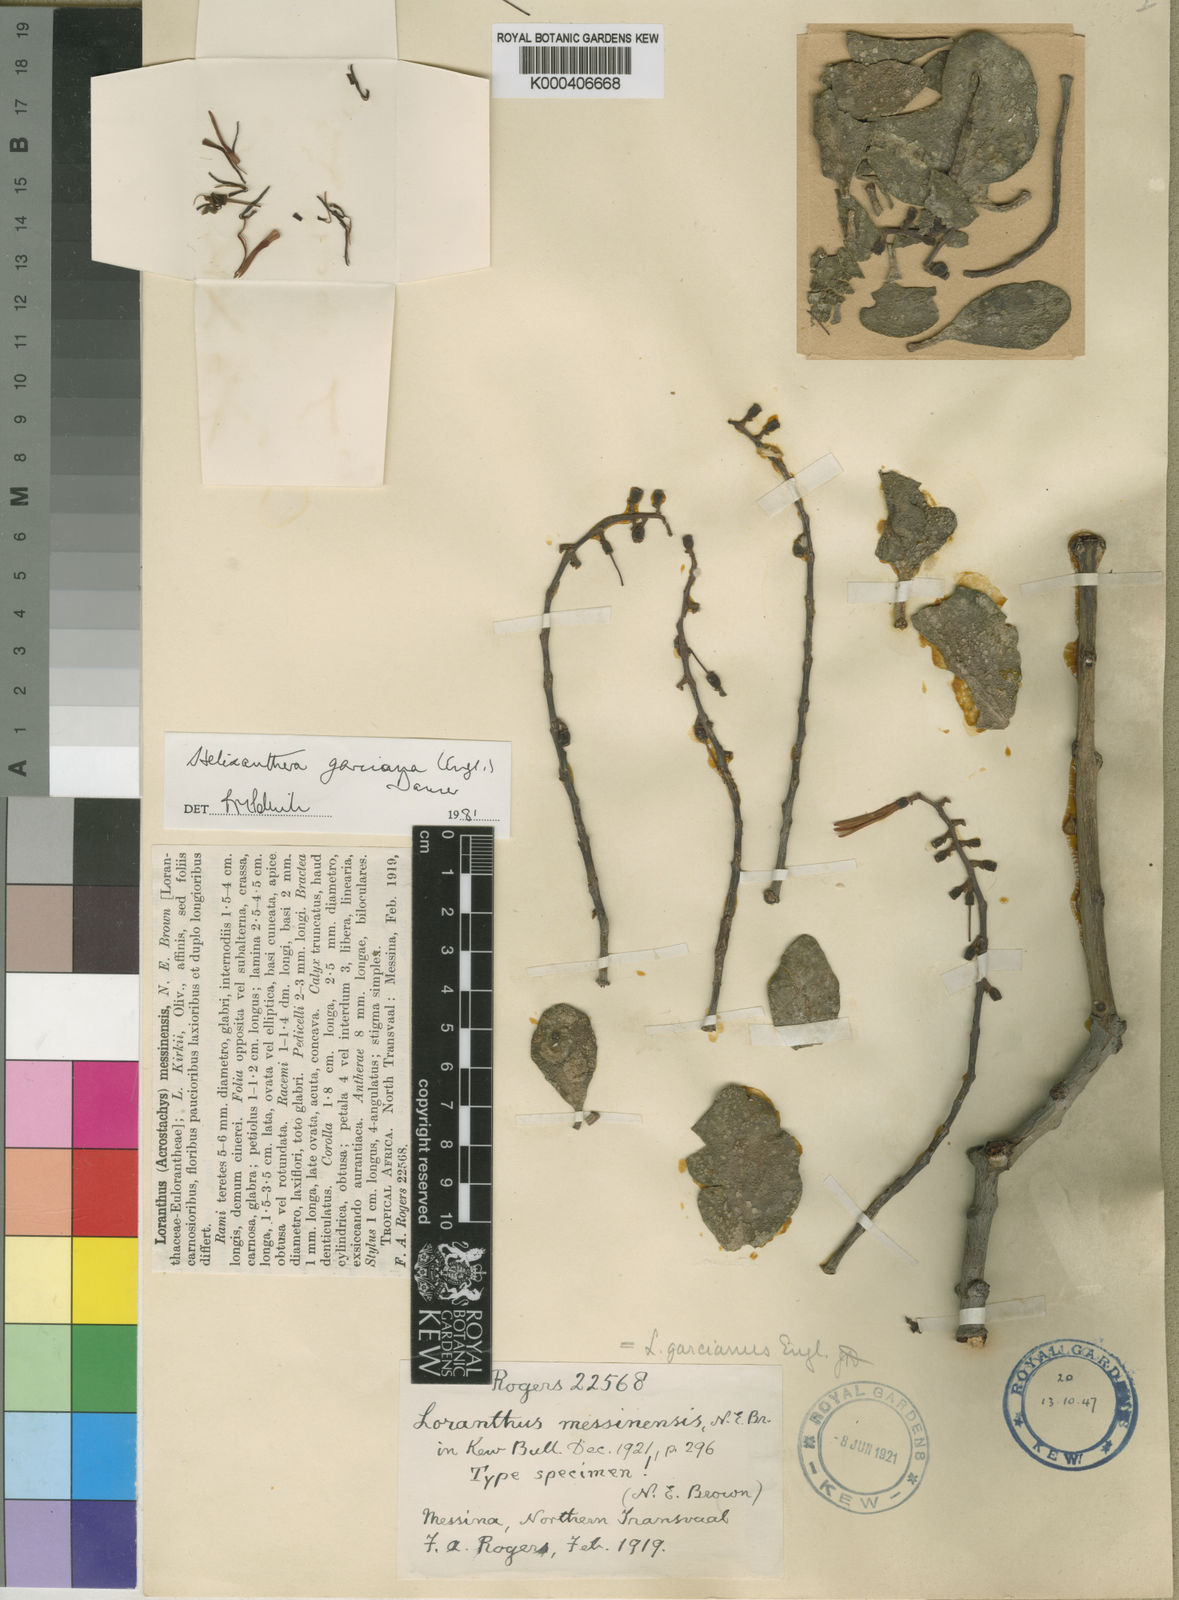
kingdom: Plantae
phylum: Tracheophyta
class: Magnoliopsida
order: Santalales
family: Loranthaceae
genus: Helixanthera
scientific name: Helixanthera garciana
